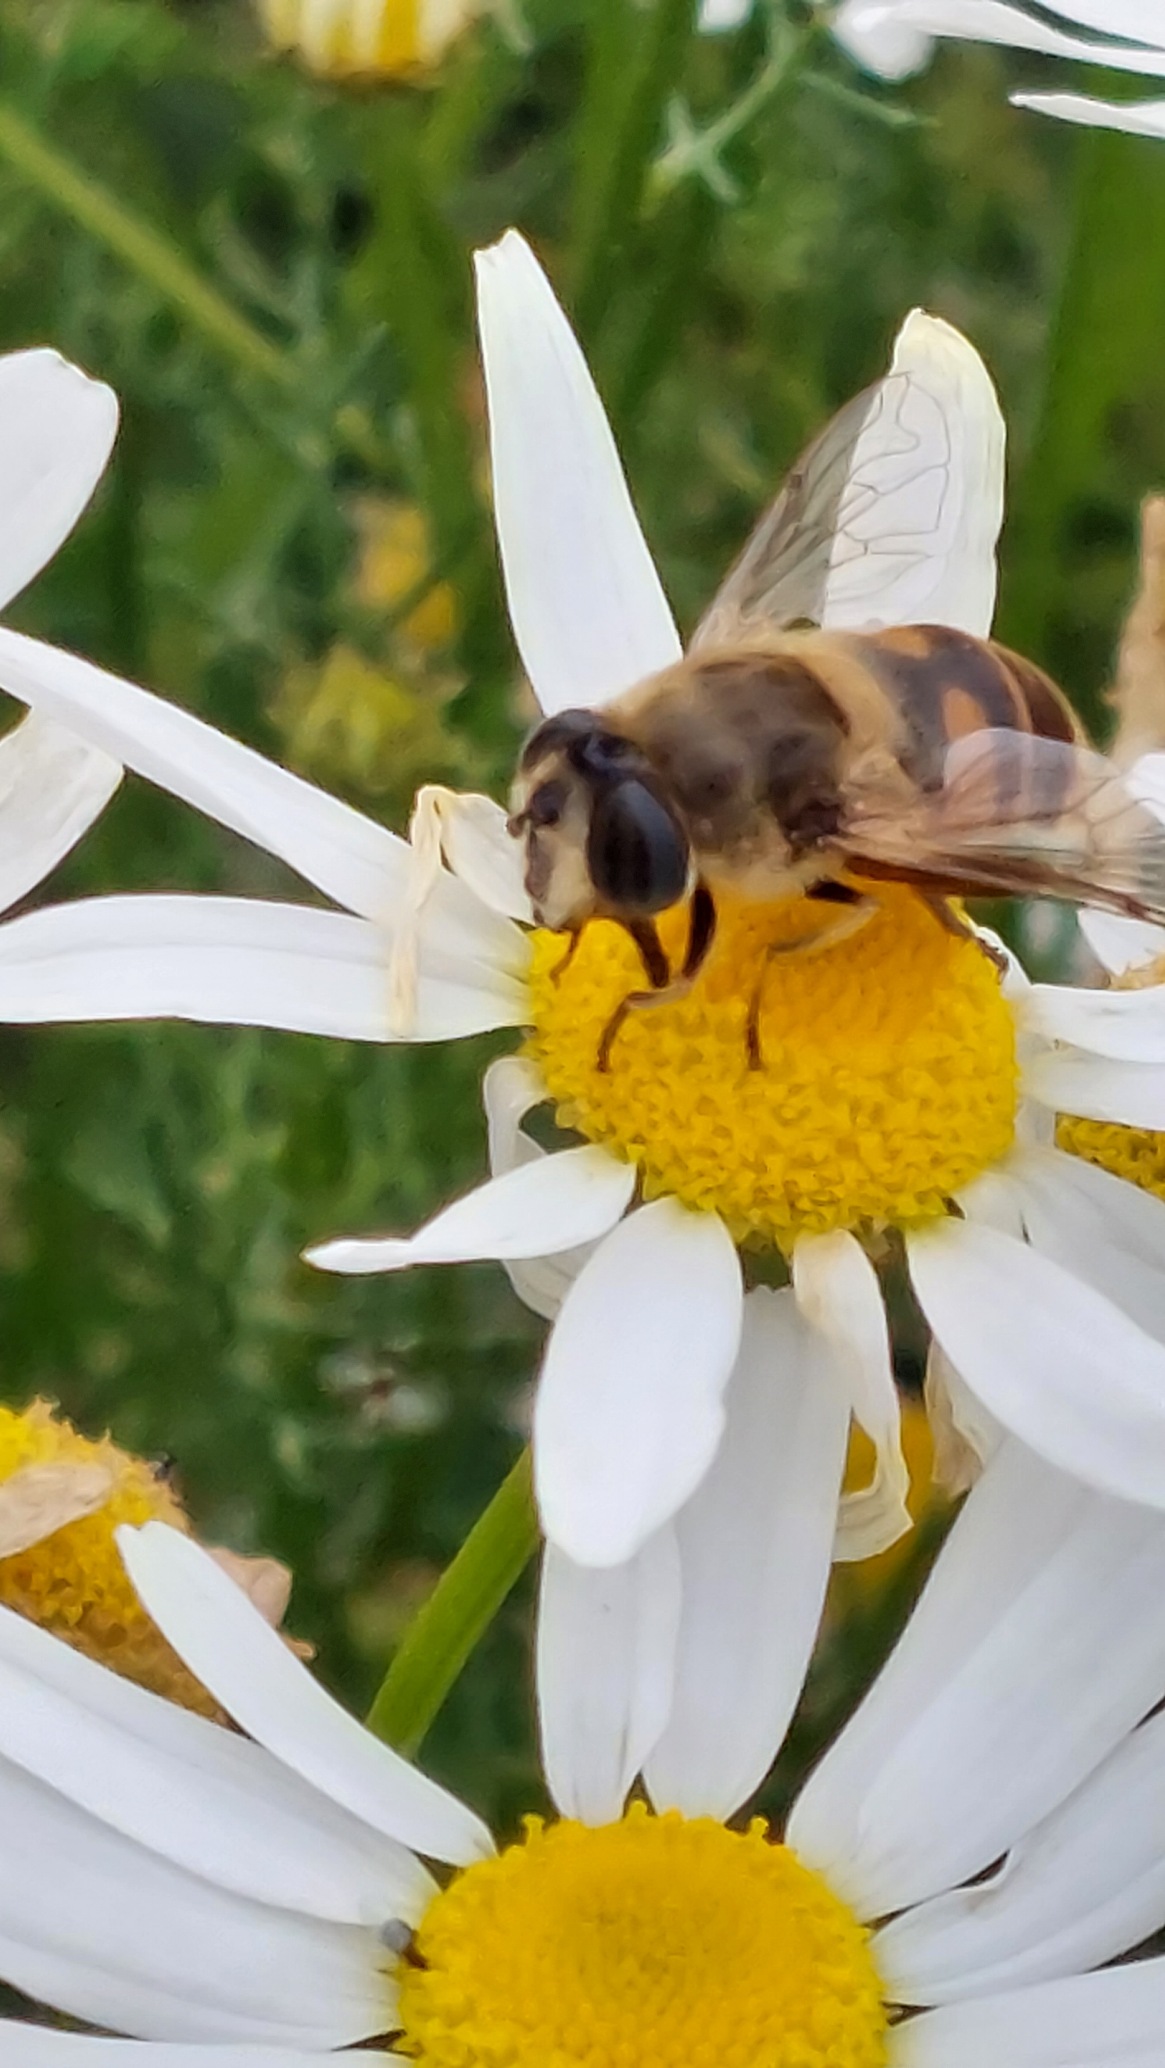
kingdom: Animalia
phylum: Arthropoda
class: Insecta
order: Diptera
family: Syrphidae
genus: Eristalis
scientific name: Eristalis tenax
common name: Droneflue
